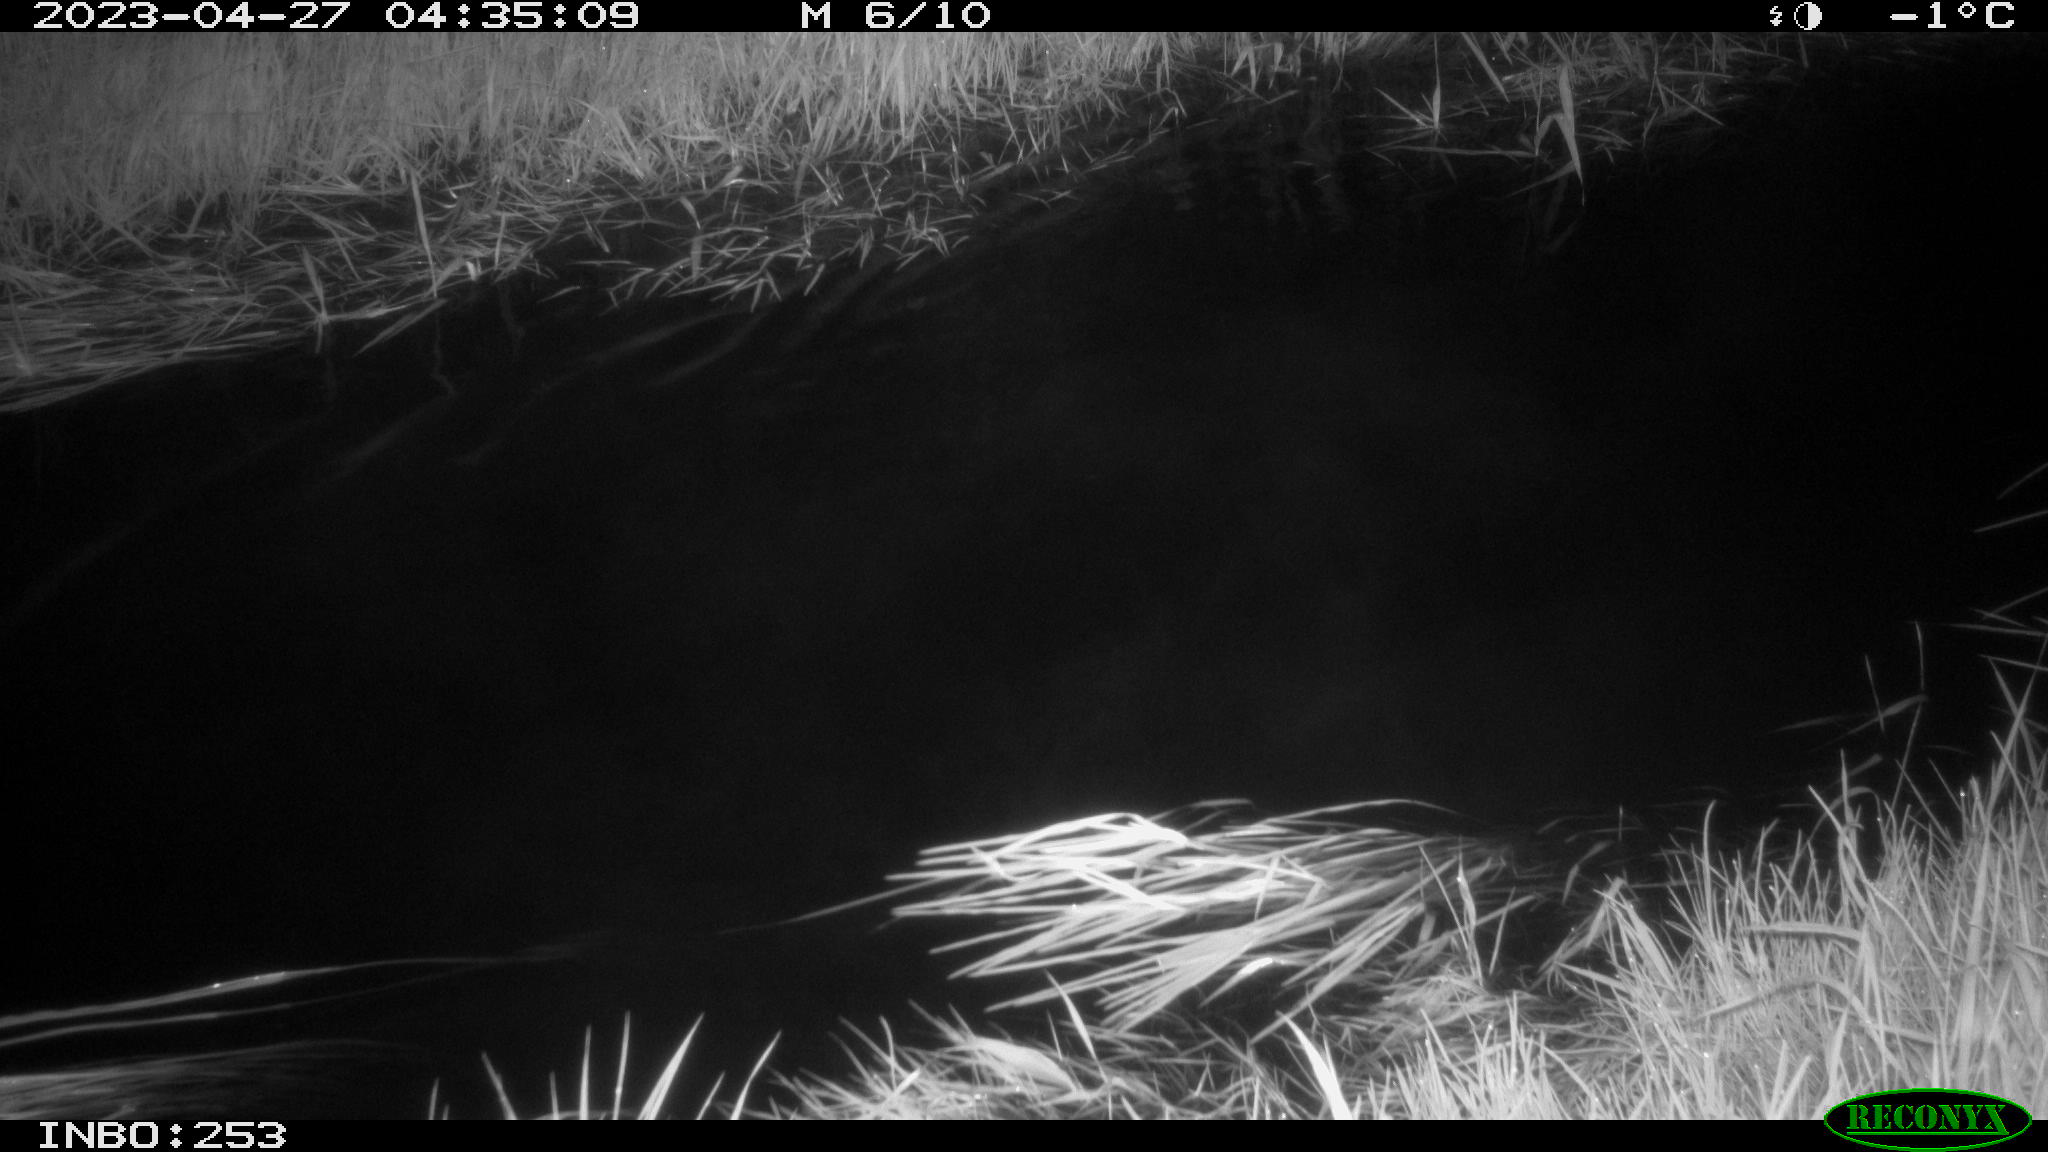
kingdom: Animalia
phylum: Chordata
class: Aves
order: Anseriformes
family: Anatidae
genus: Anas
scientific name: Anas
